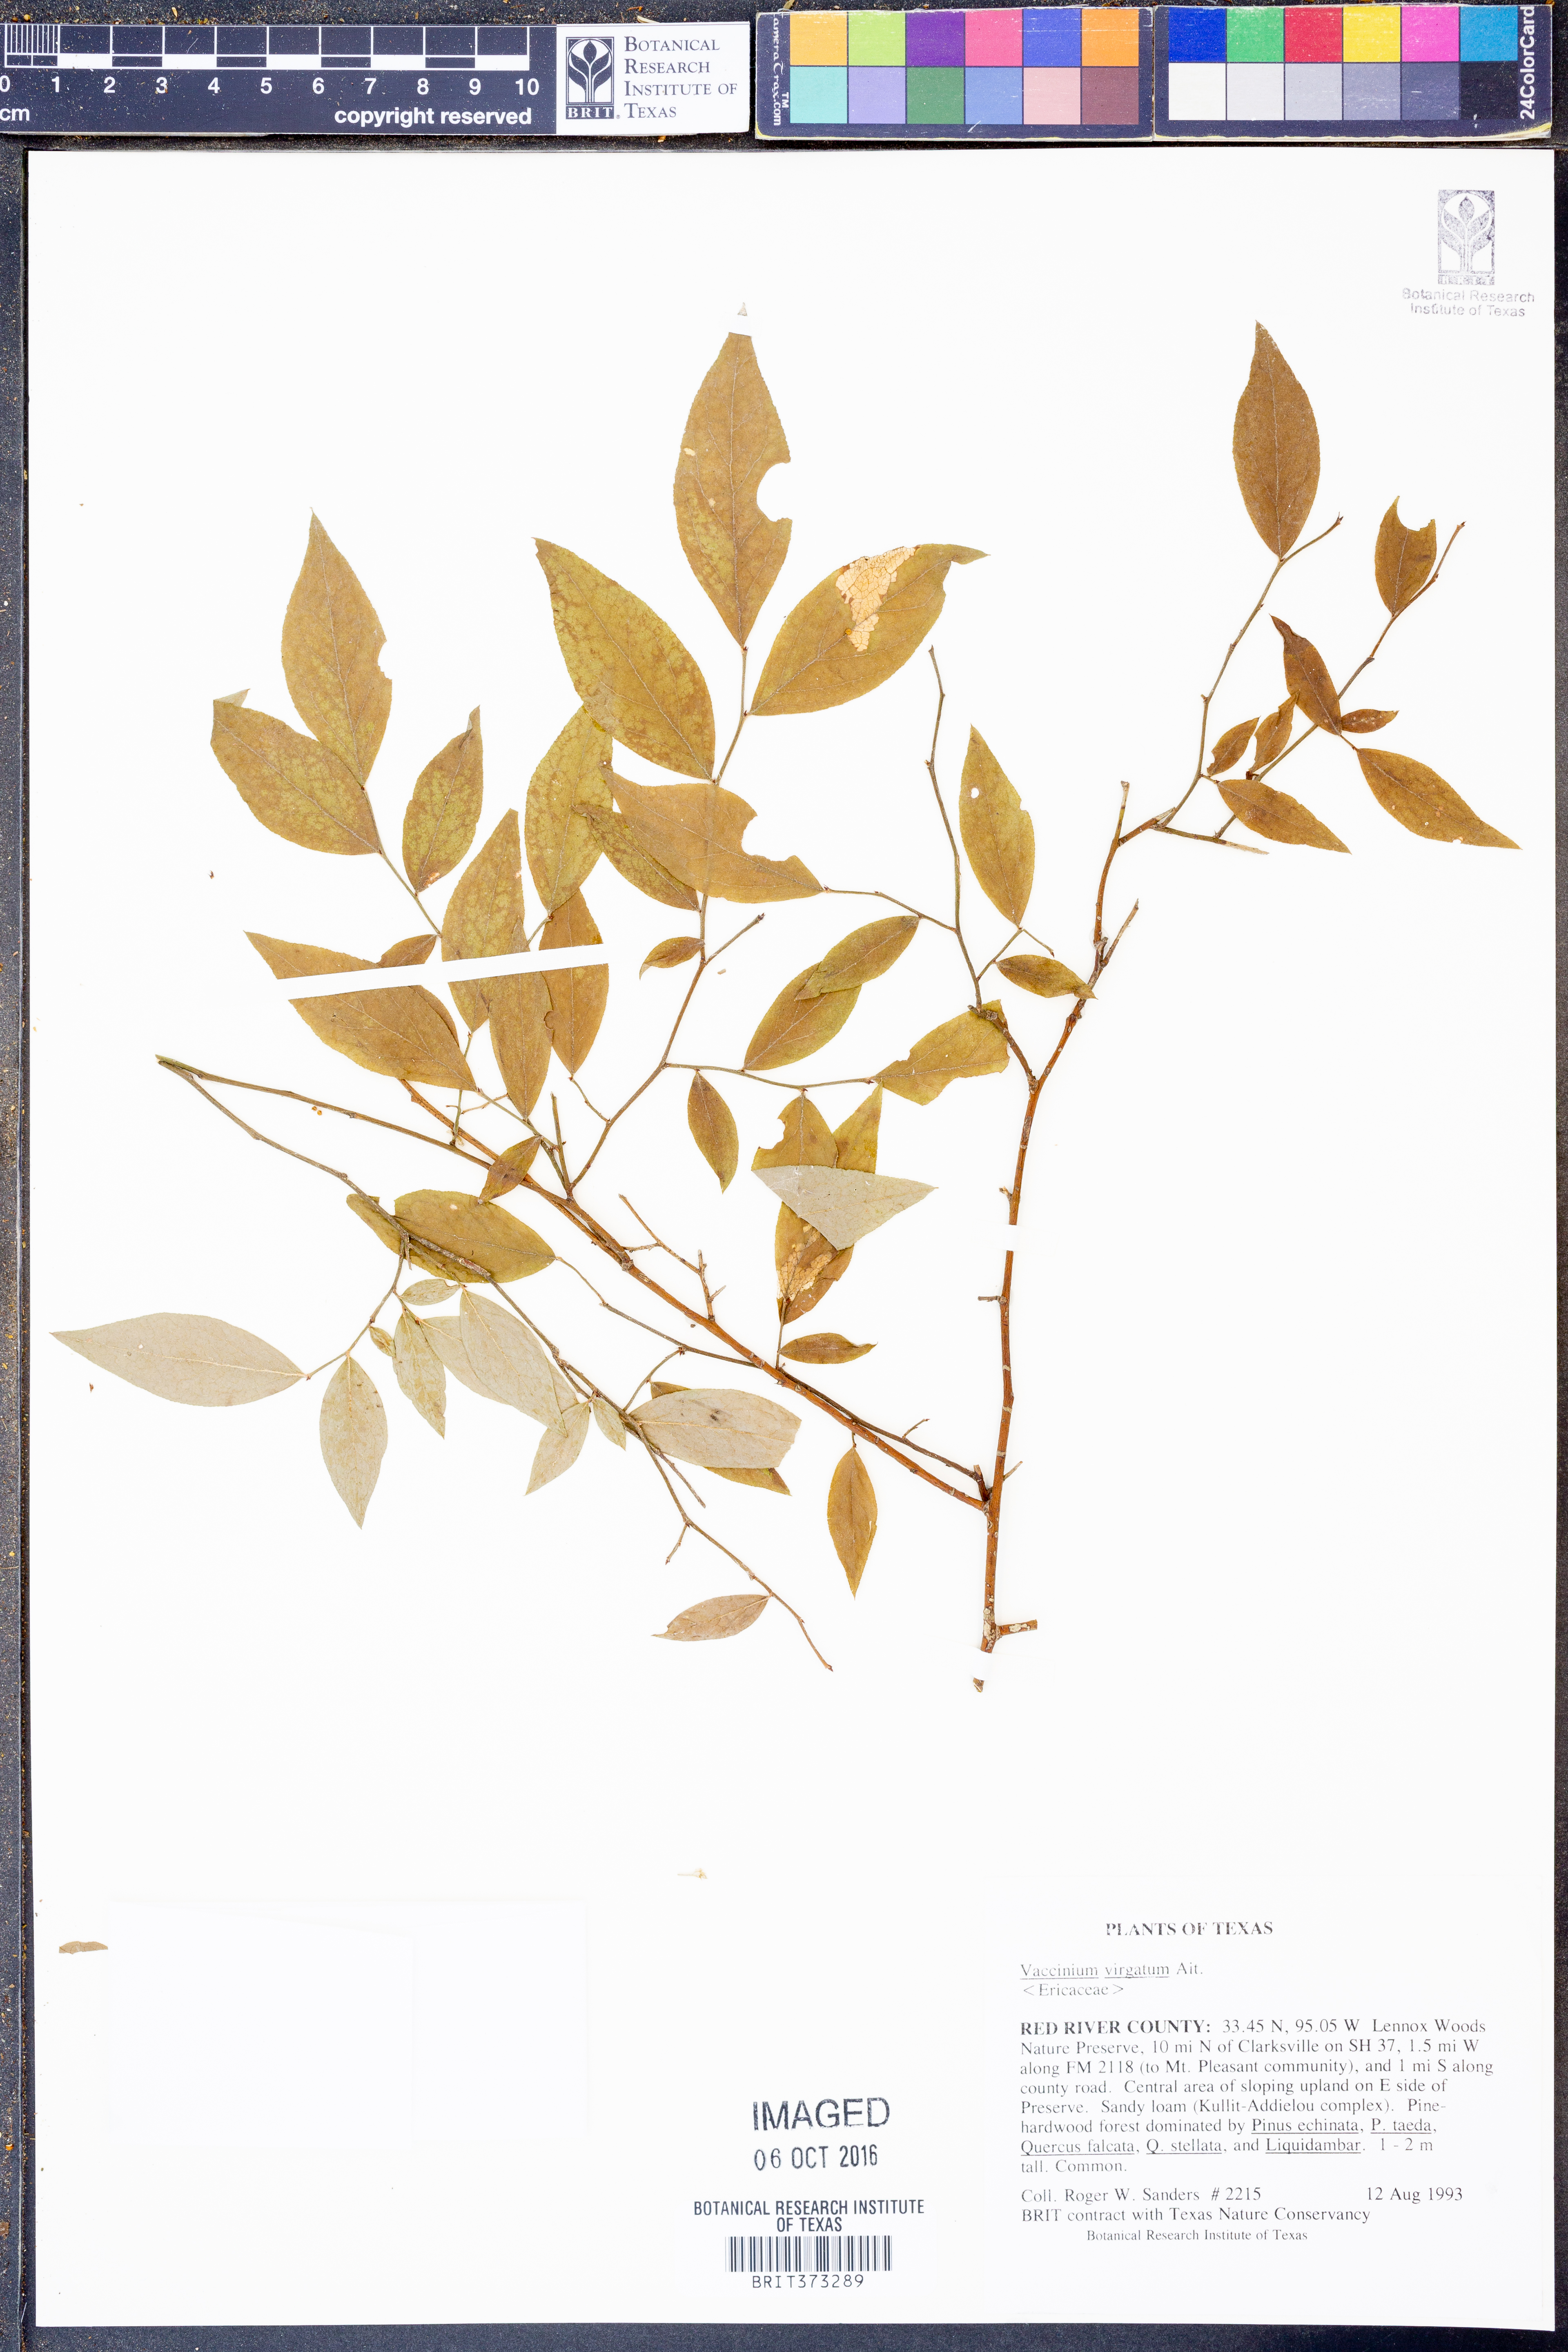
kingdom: Plantae
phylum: Tracheophyta
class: Magnoliopsida
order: Ericales
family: Ericaceae
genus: Vaccinium
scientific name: Vaccinium corymbosum
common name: Blueberry
